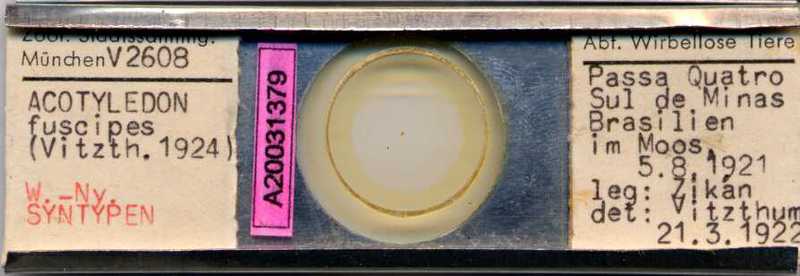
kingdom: Animalia
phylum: Arthropoda
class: Arachnida
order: Sarcoptiformes
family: Acaridae
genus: Acotyledon
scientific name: Acotyledon
